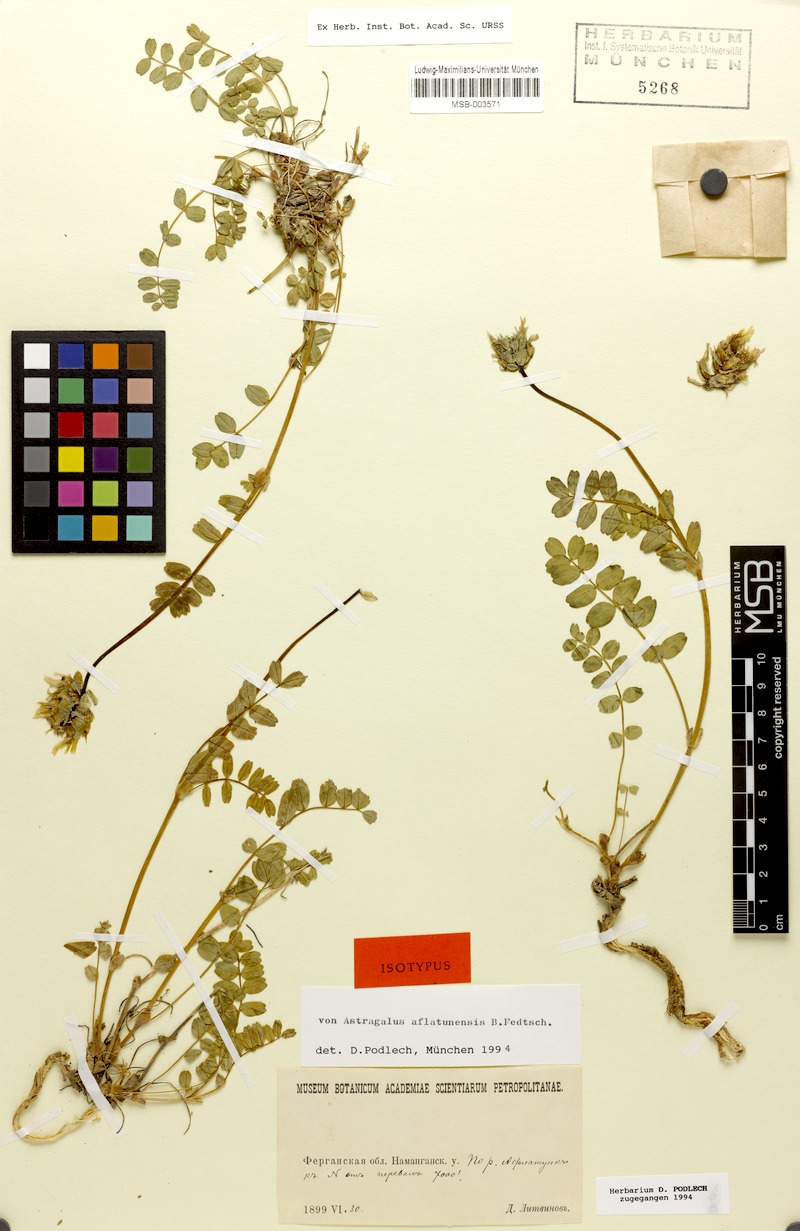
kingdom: Plantae
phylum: Tracheophyta
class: Magnoliopsida
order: Fabales
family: Fabaceae
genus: Astragalus
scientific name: Astragalus aflatunensis
